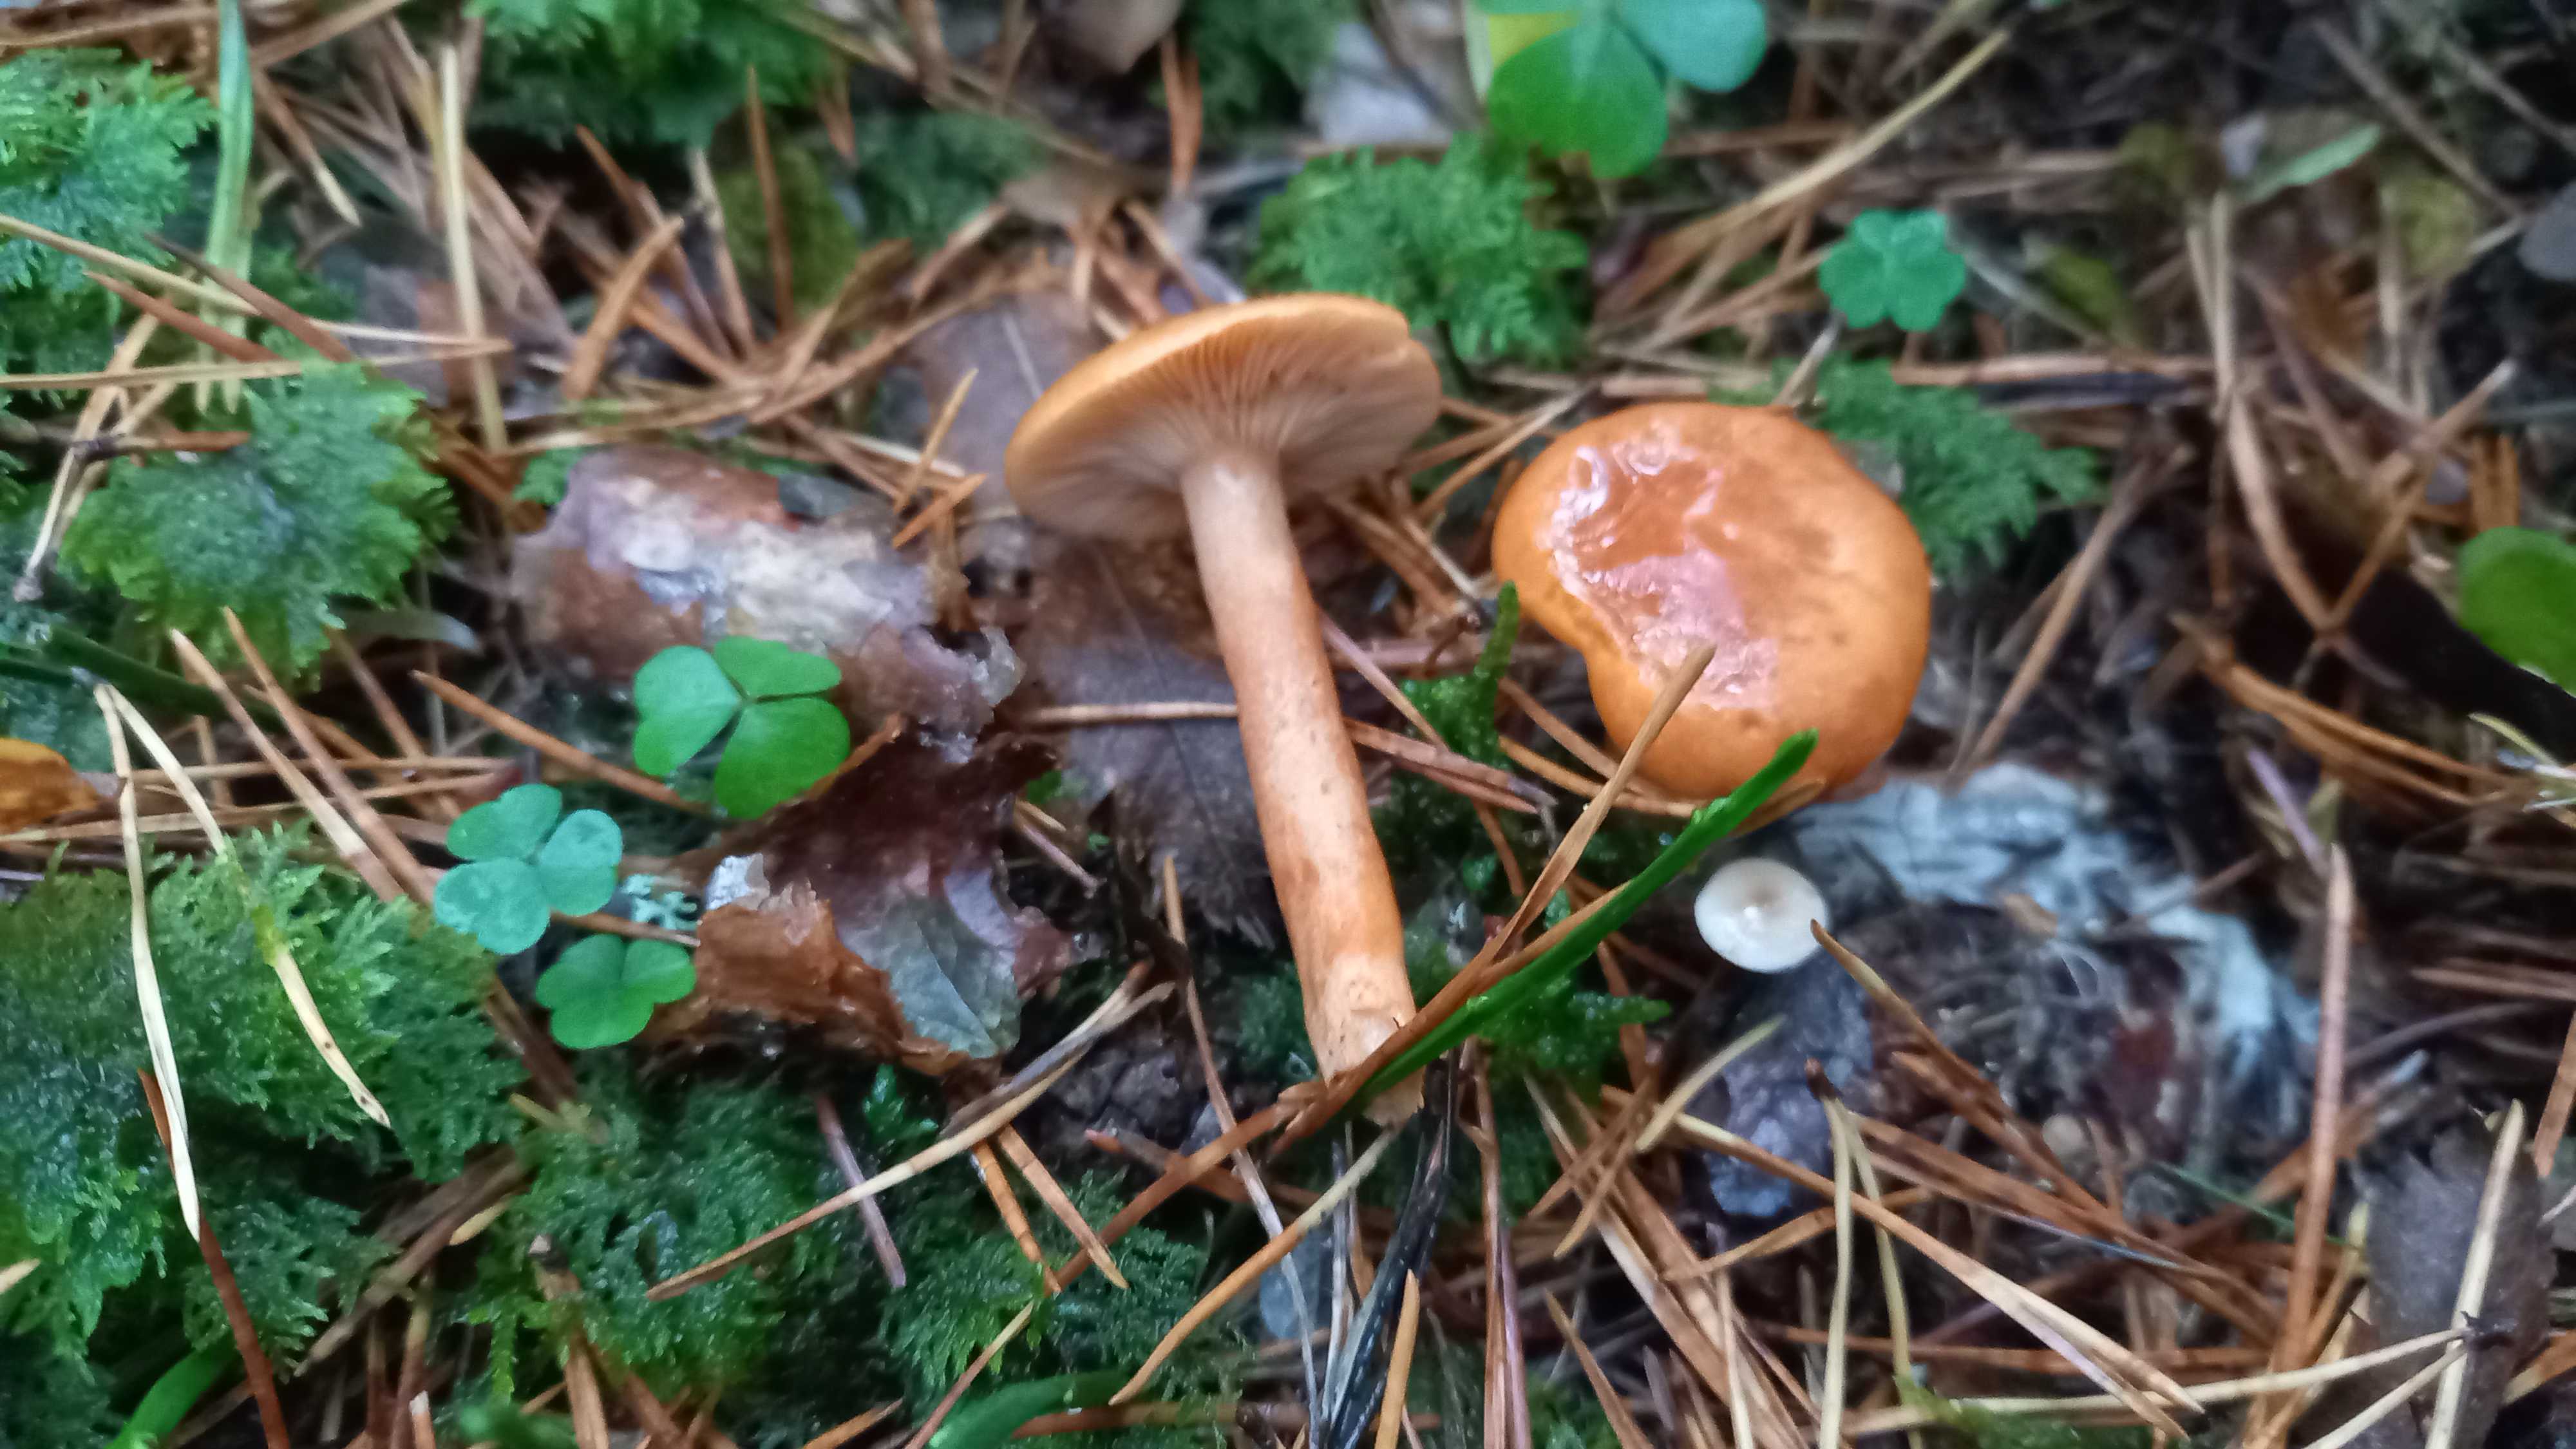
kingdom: Fungi
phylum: Basidiomycota
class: Agaricomycetes
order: Russulales
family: Russulaceae
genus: Lactarius
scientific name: Lactarius aurantiacus
